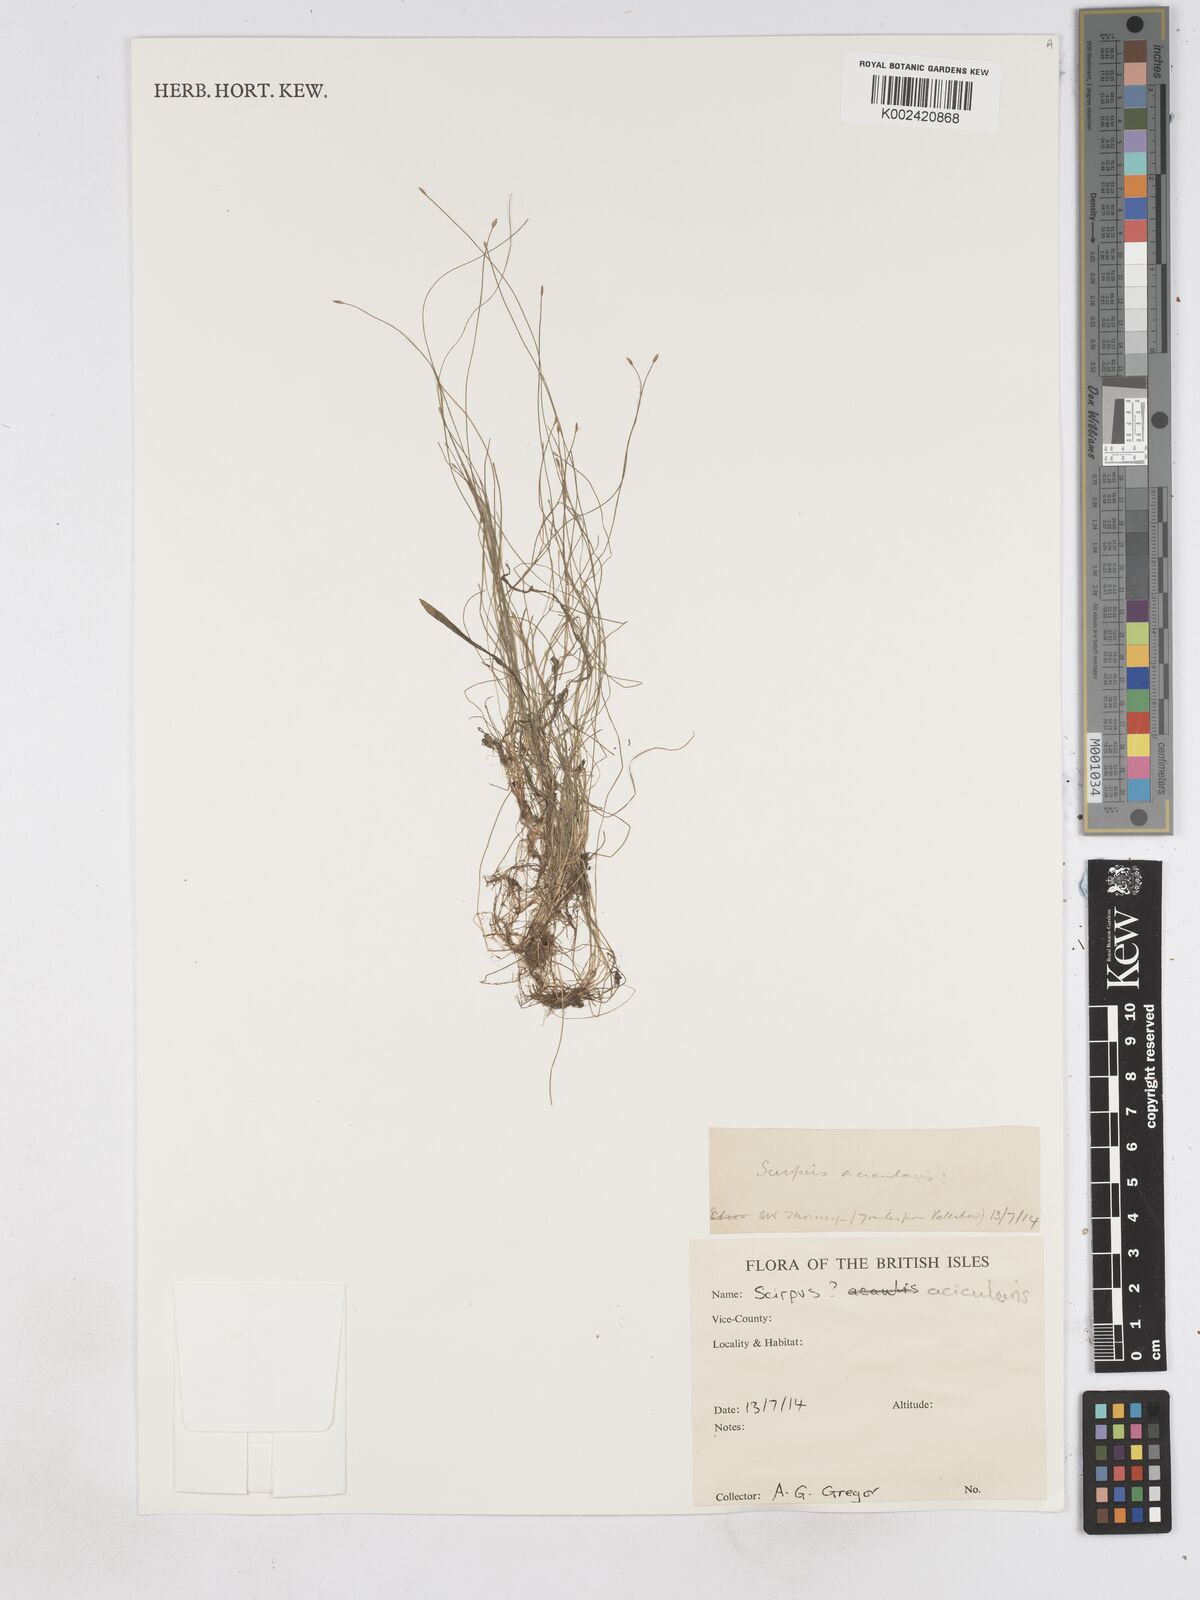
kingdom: Plantae
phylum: Tracheophyta
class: Liliopsida
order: Poales
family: Cyperaceae
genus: Eleocharis
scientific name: Eleocharis acicularis
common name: Needle spike-rush
